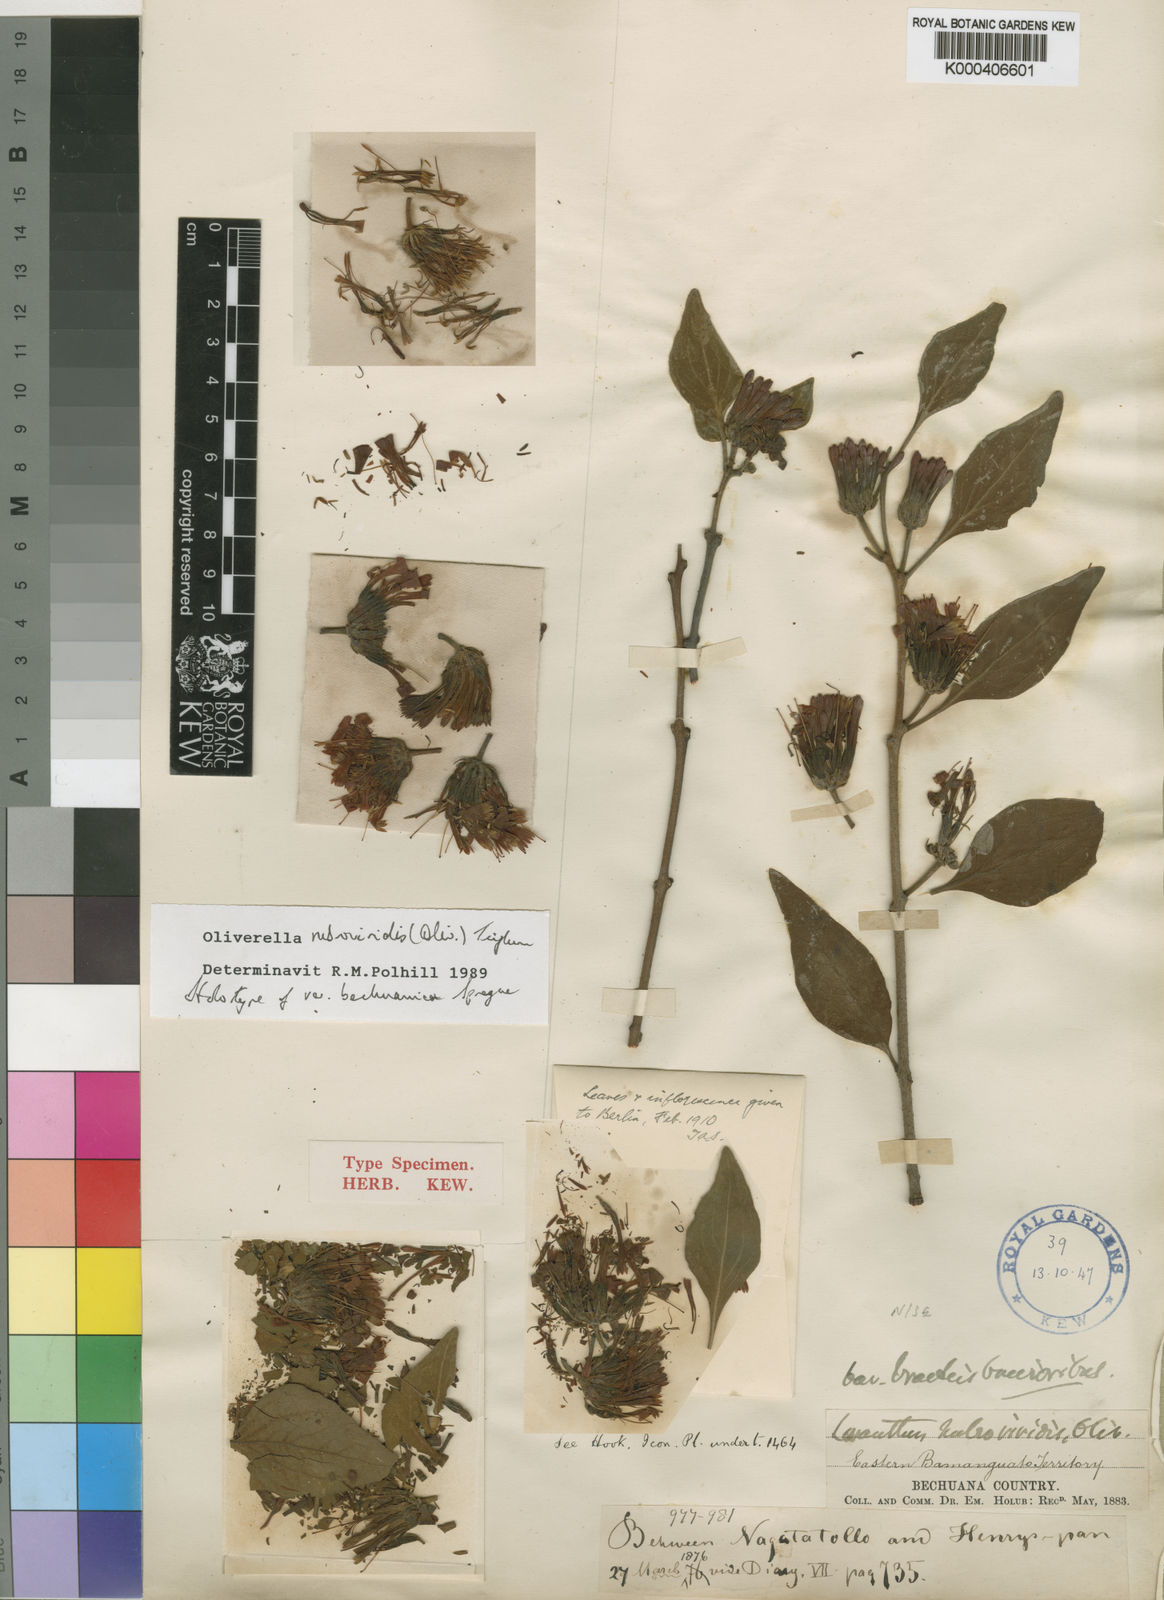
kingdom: Plantae
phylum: Tracheophyta
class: Magnoliopsida
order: Santalales
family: Loranthaceae
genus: Oliverella
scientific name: Oliverella rubroviridis
